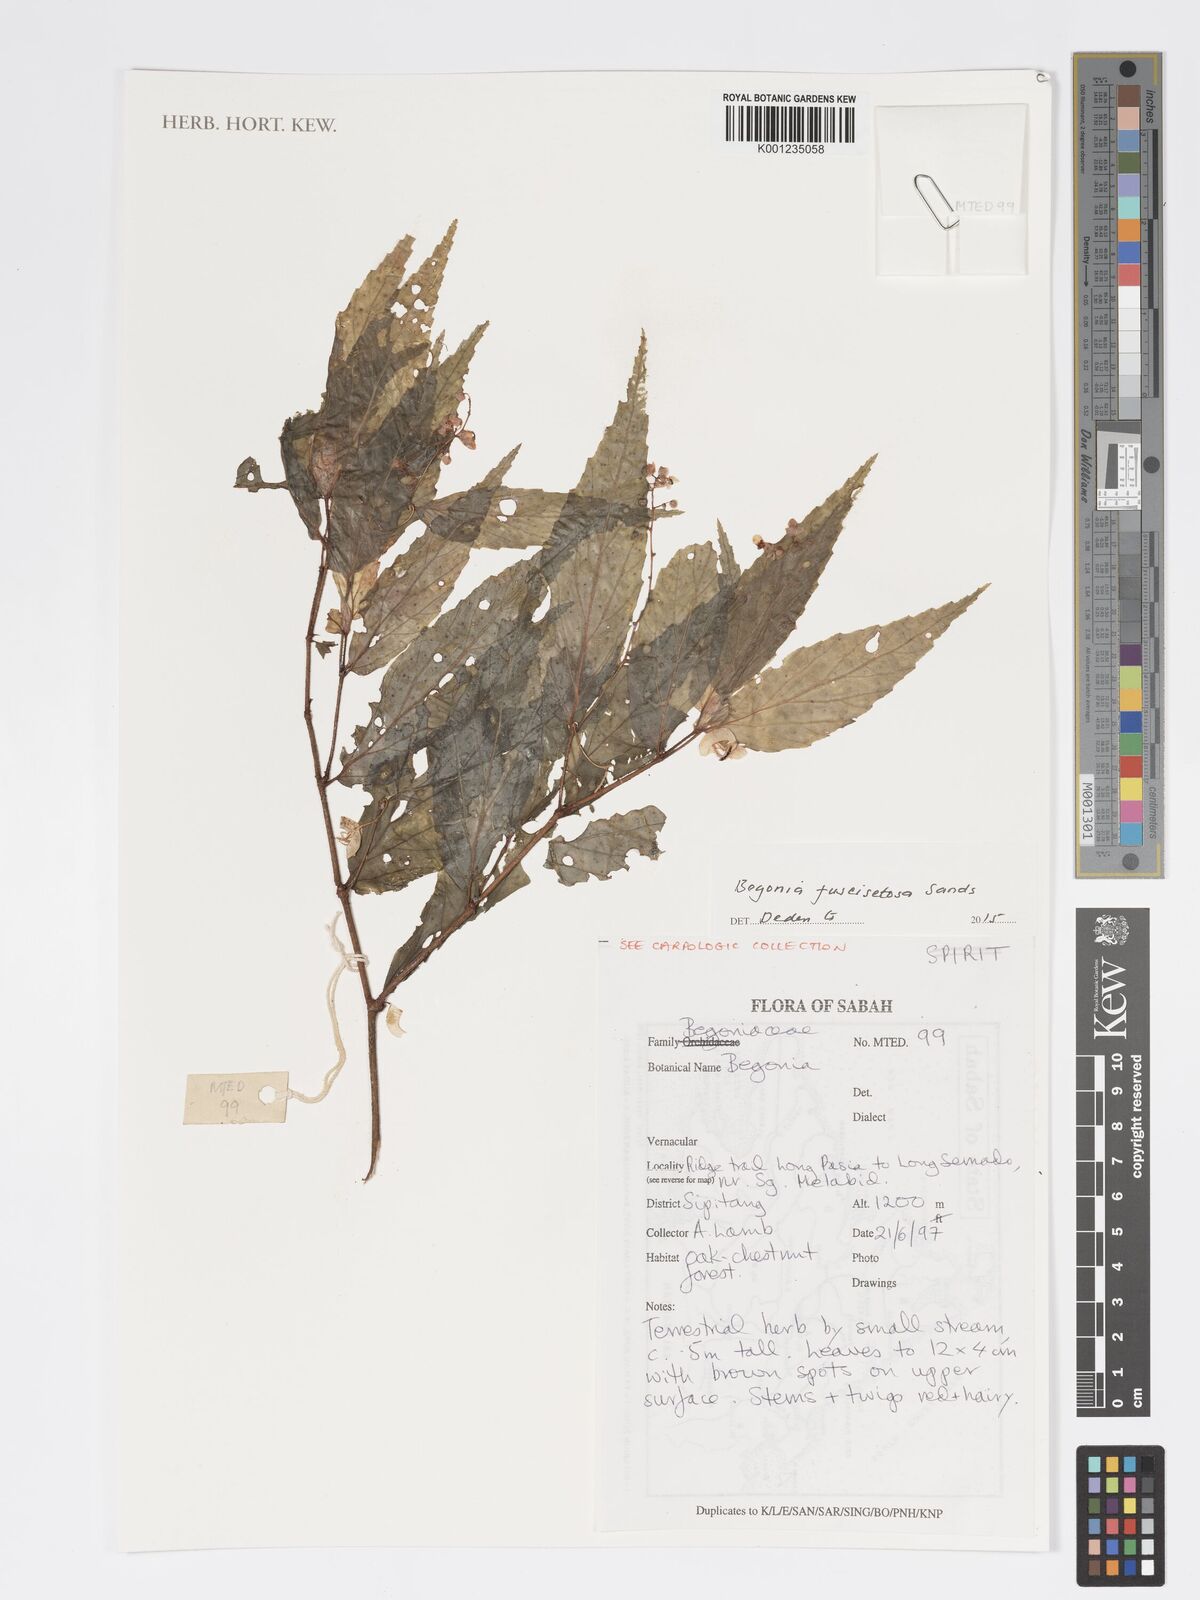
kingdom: Plantae
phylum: Tracheophyta
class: Magnoliopsida
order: Cucurbitales
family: Begoniaceae
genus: Begonia
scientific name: Begonia fuscisetosa
